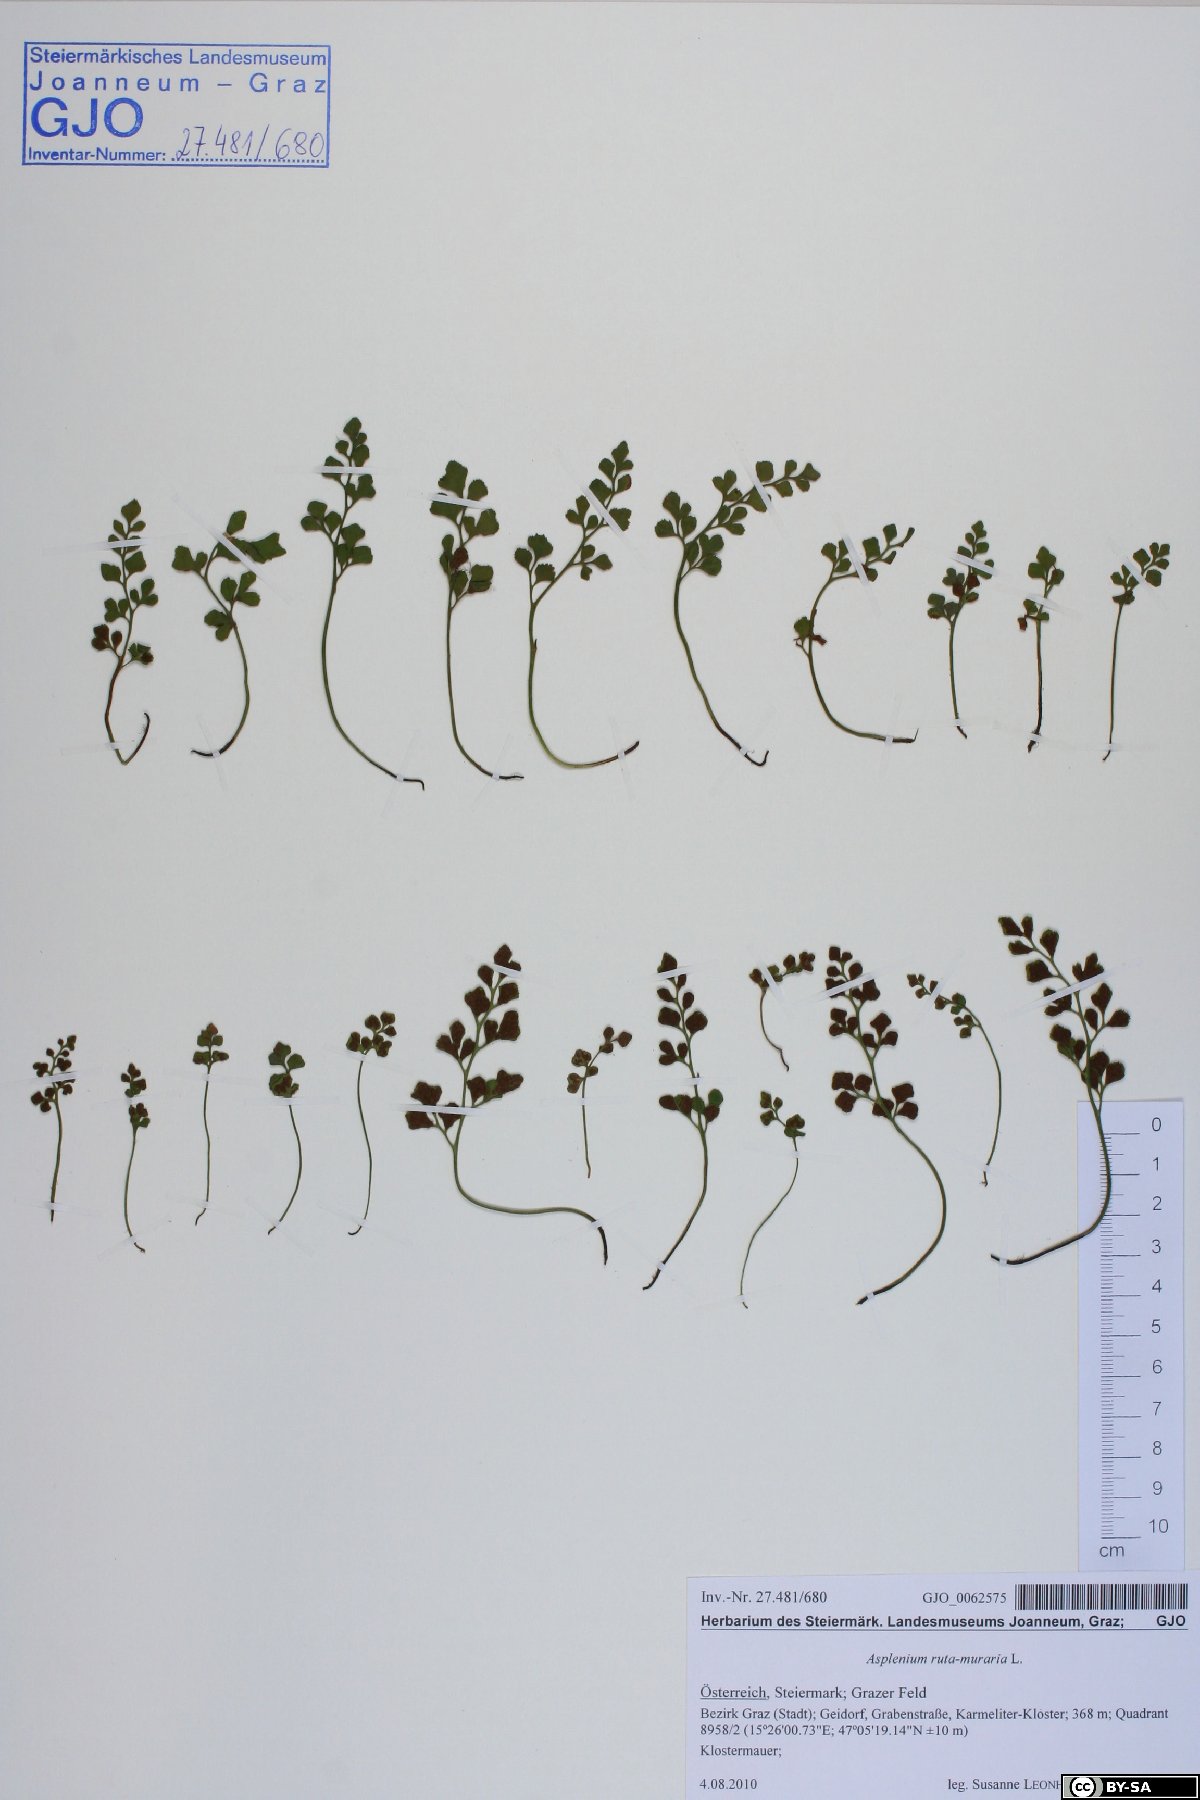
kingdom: Plantae
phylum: Tracheophyta
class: Polypodiopsida
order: Polypodiales
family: Aspleniaceae
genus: Asplenium
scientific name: Asplenium ruta-muraria
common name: Wall-rue
